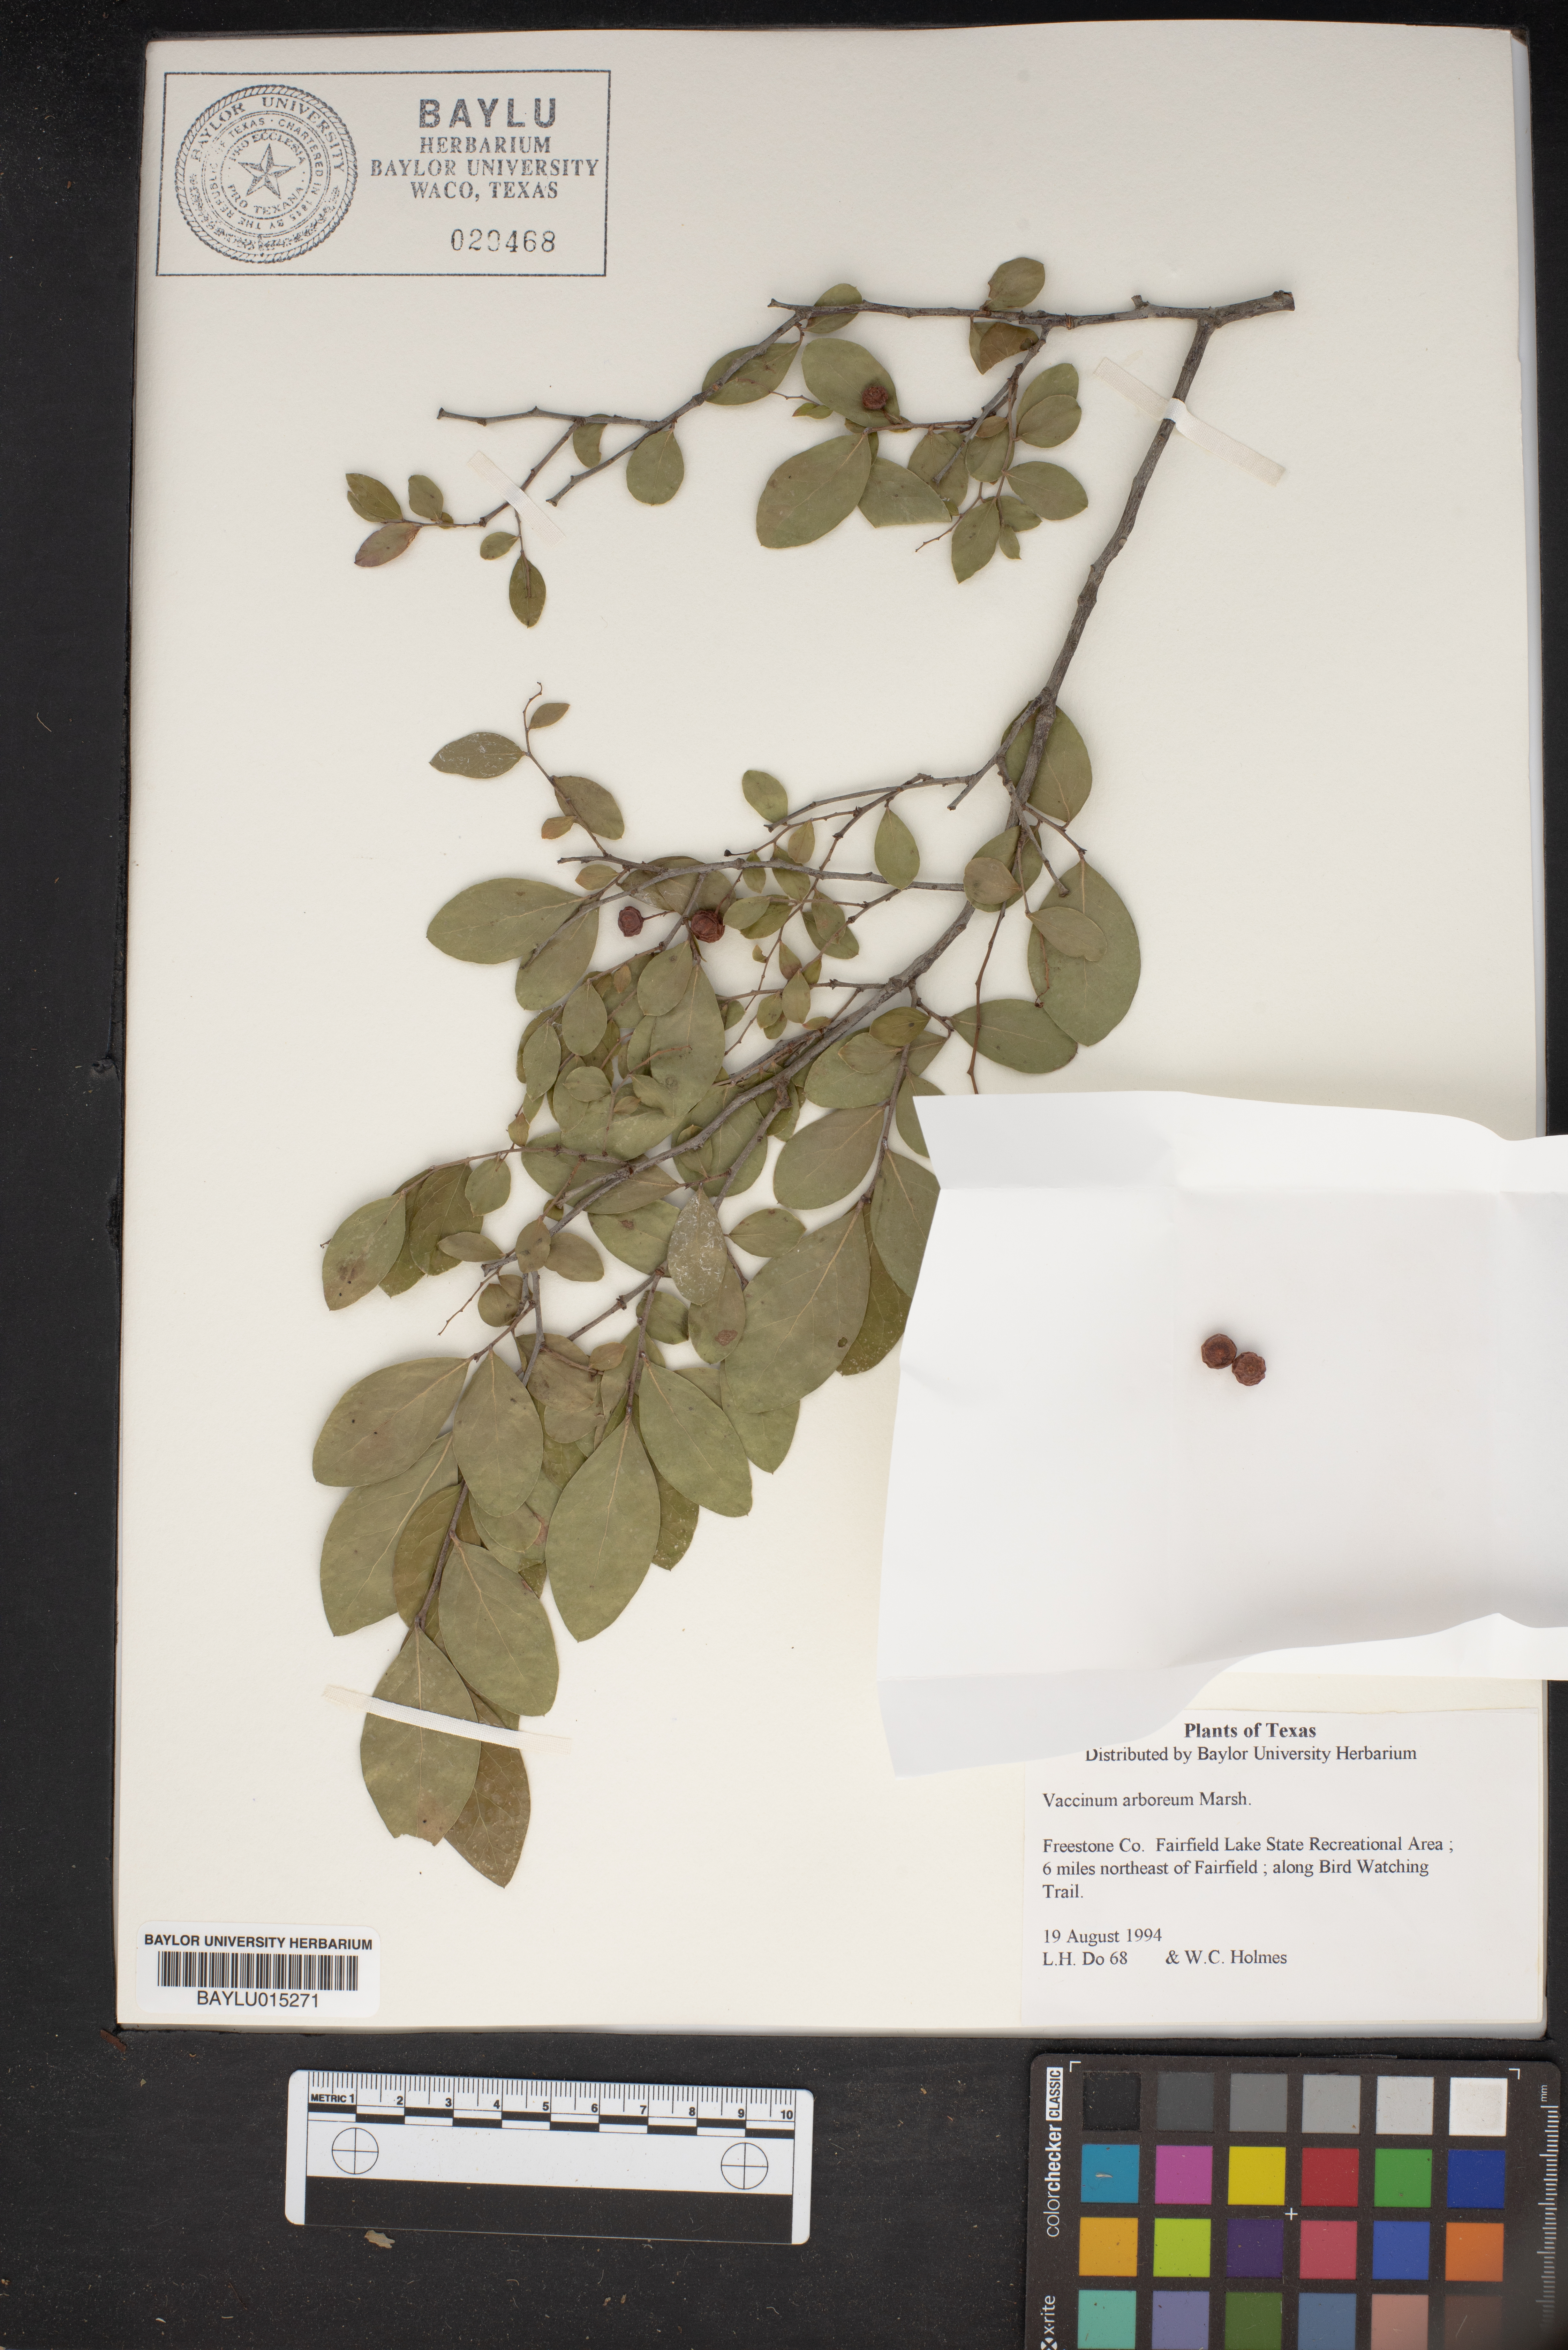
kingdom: Plantae
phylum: Tracheophyta
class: Magnoliopsida
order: Ericales
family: Ericaceae
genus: Vaccinium
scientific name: Vaccinium arboreum
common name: Farkleberry
